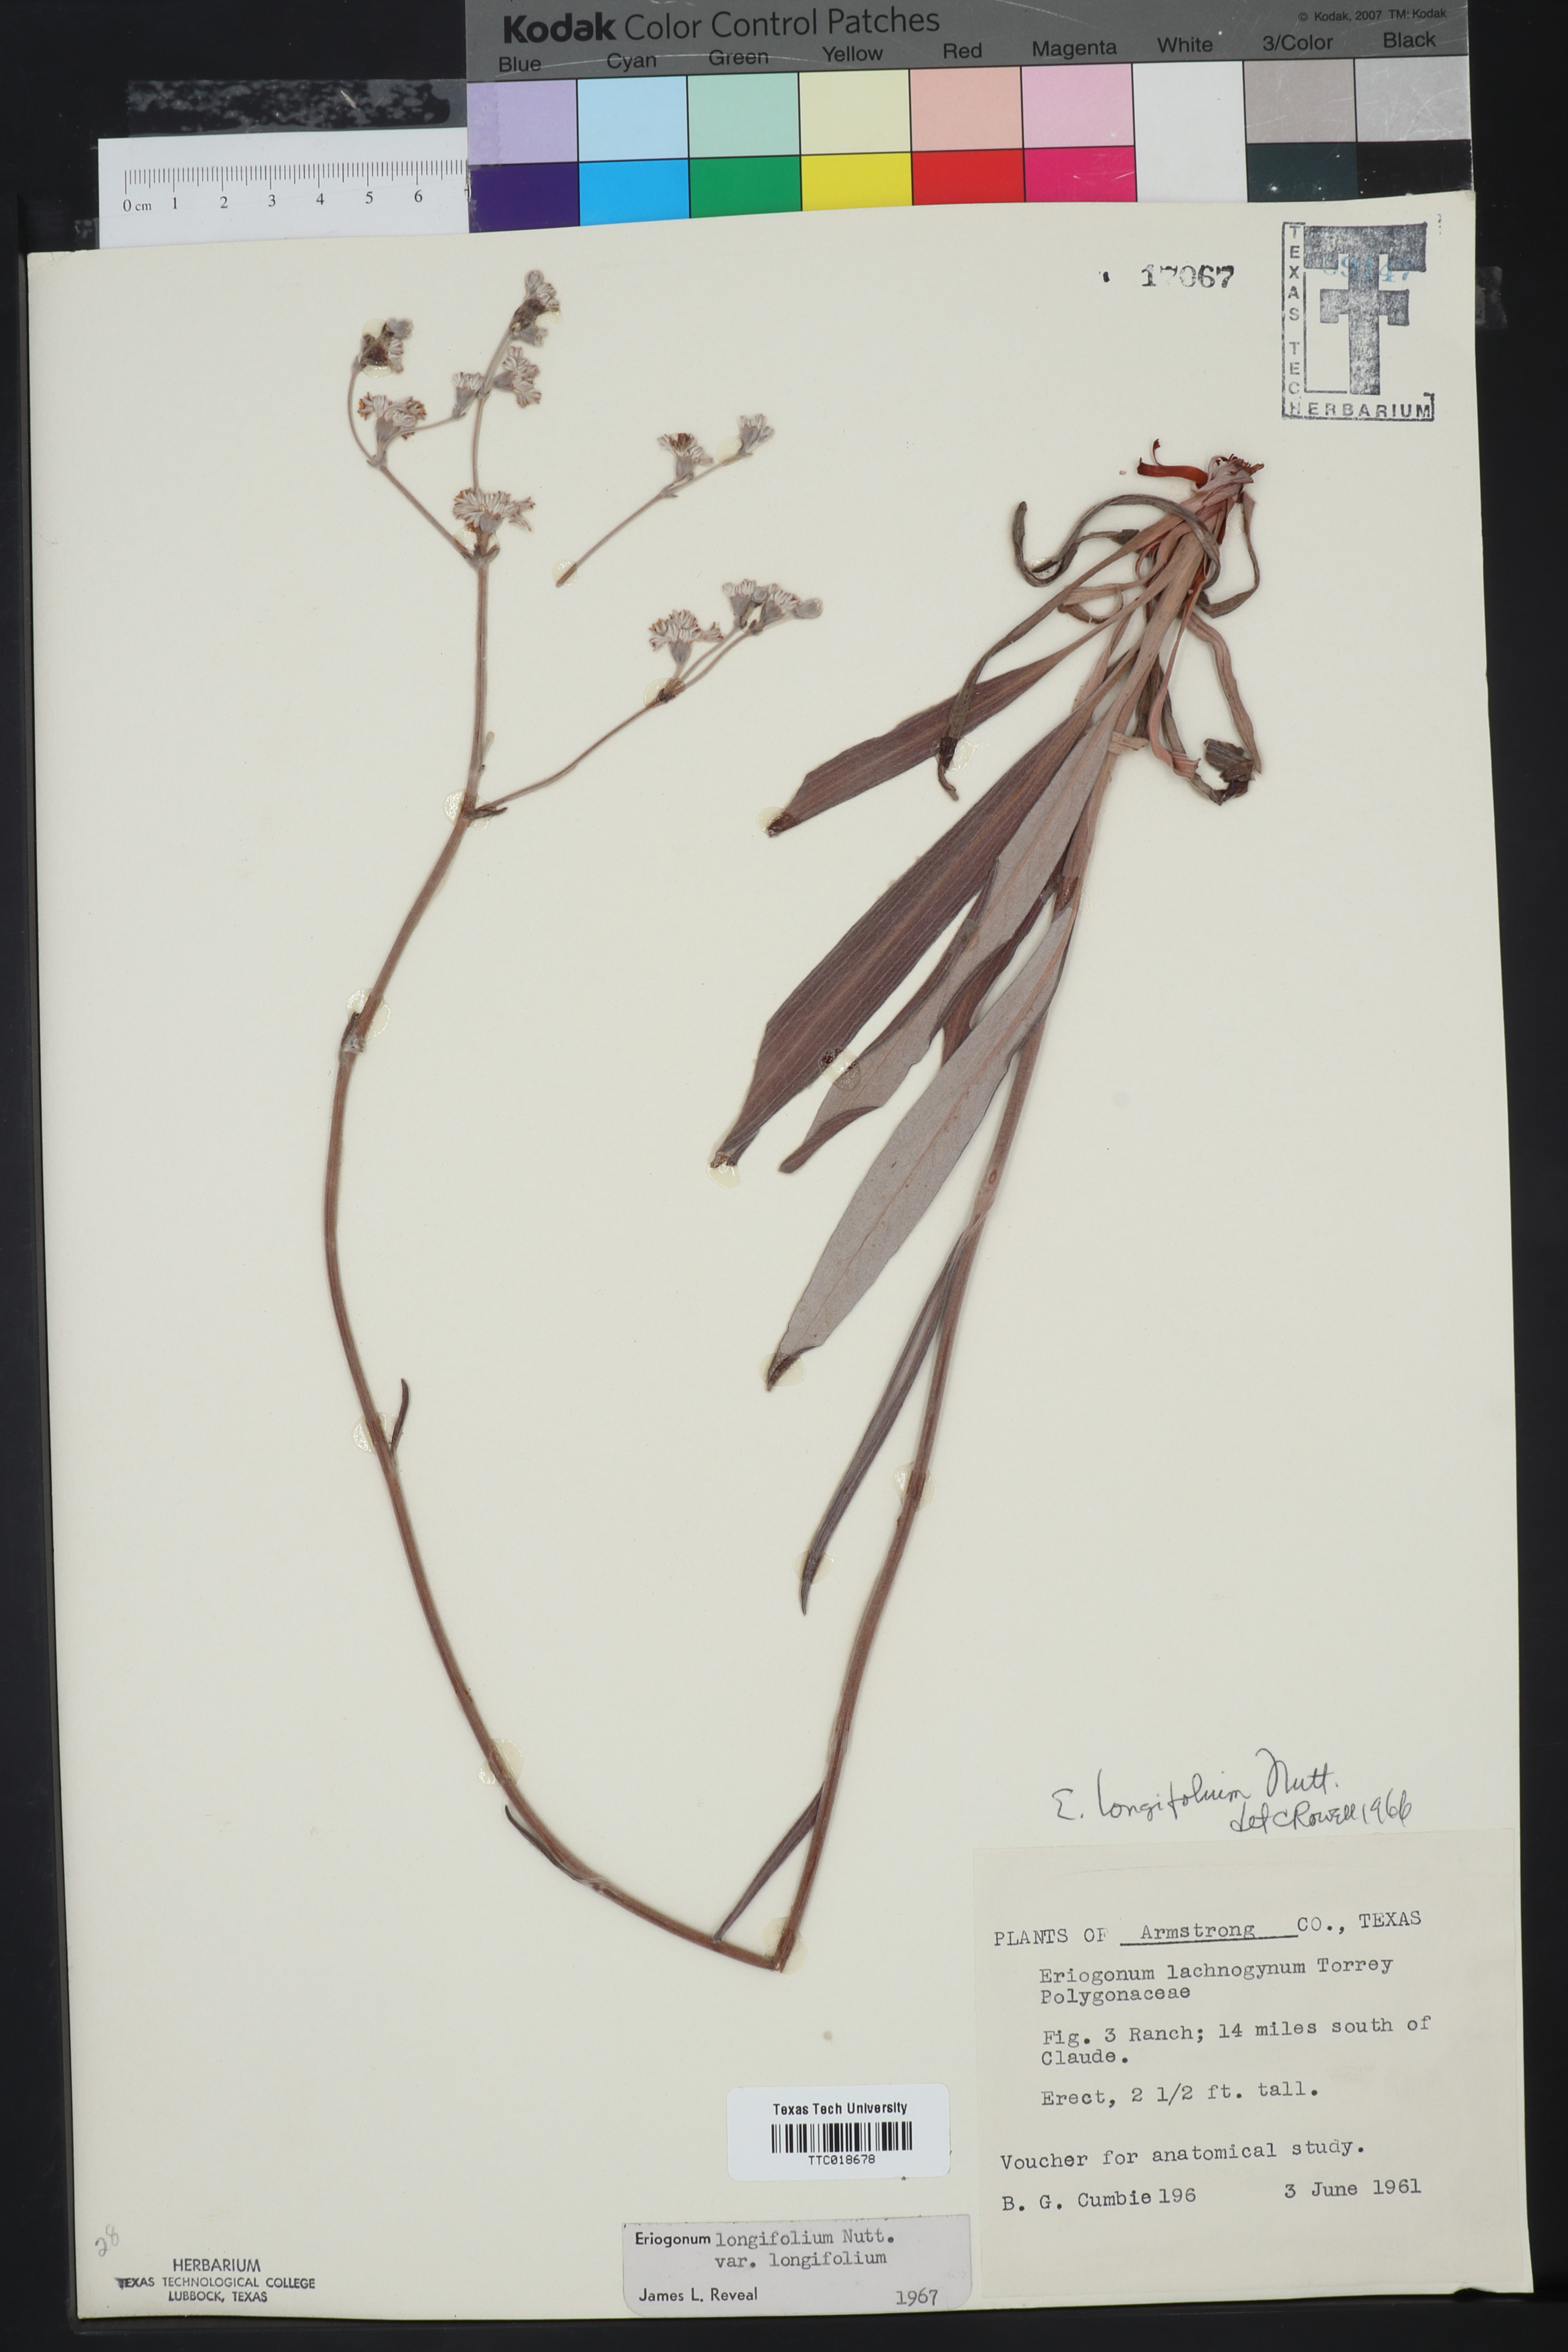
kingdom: Plantae
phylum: Tracheophyta
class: Magnoliopsida
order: Caryophyllales
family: Polygonaceae
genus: Eriogonum
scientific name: Eriogonum longifolium
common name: Longleaf wild buckwheat
